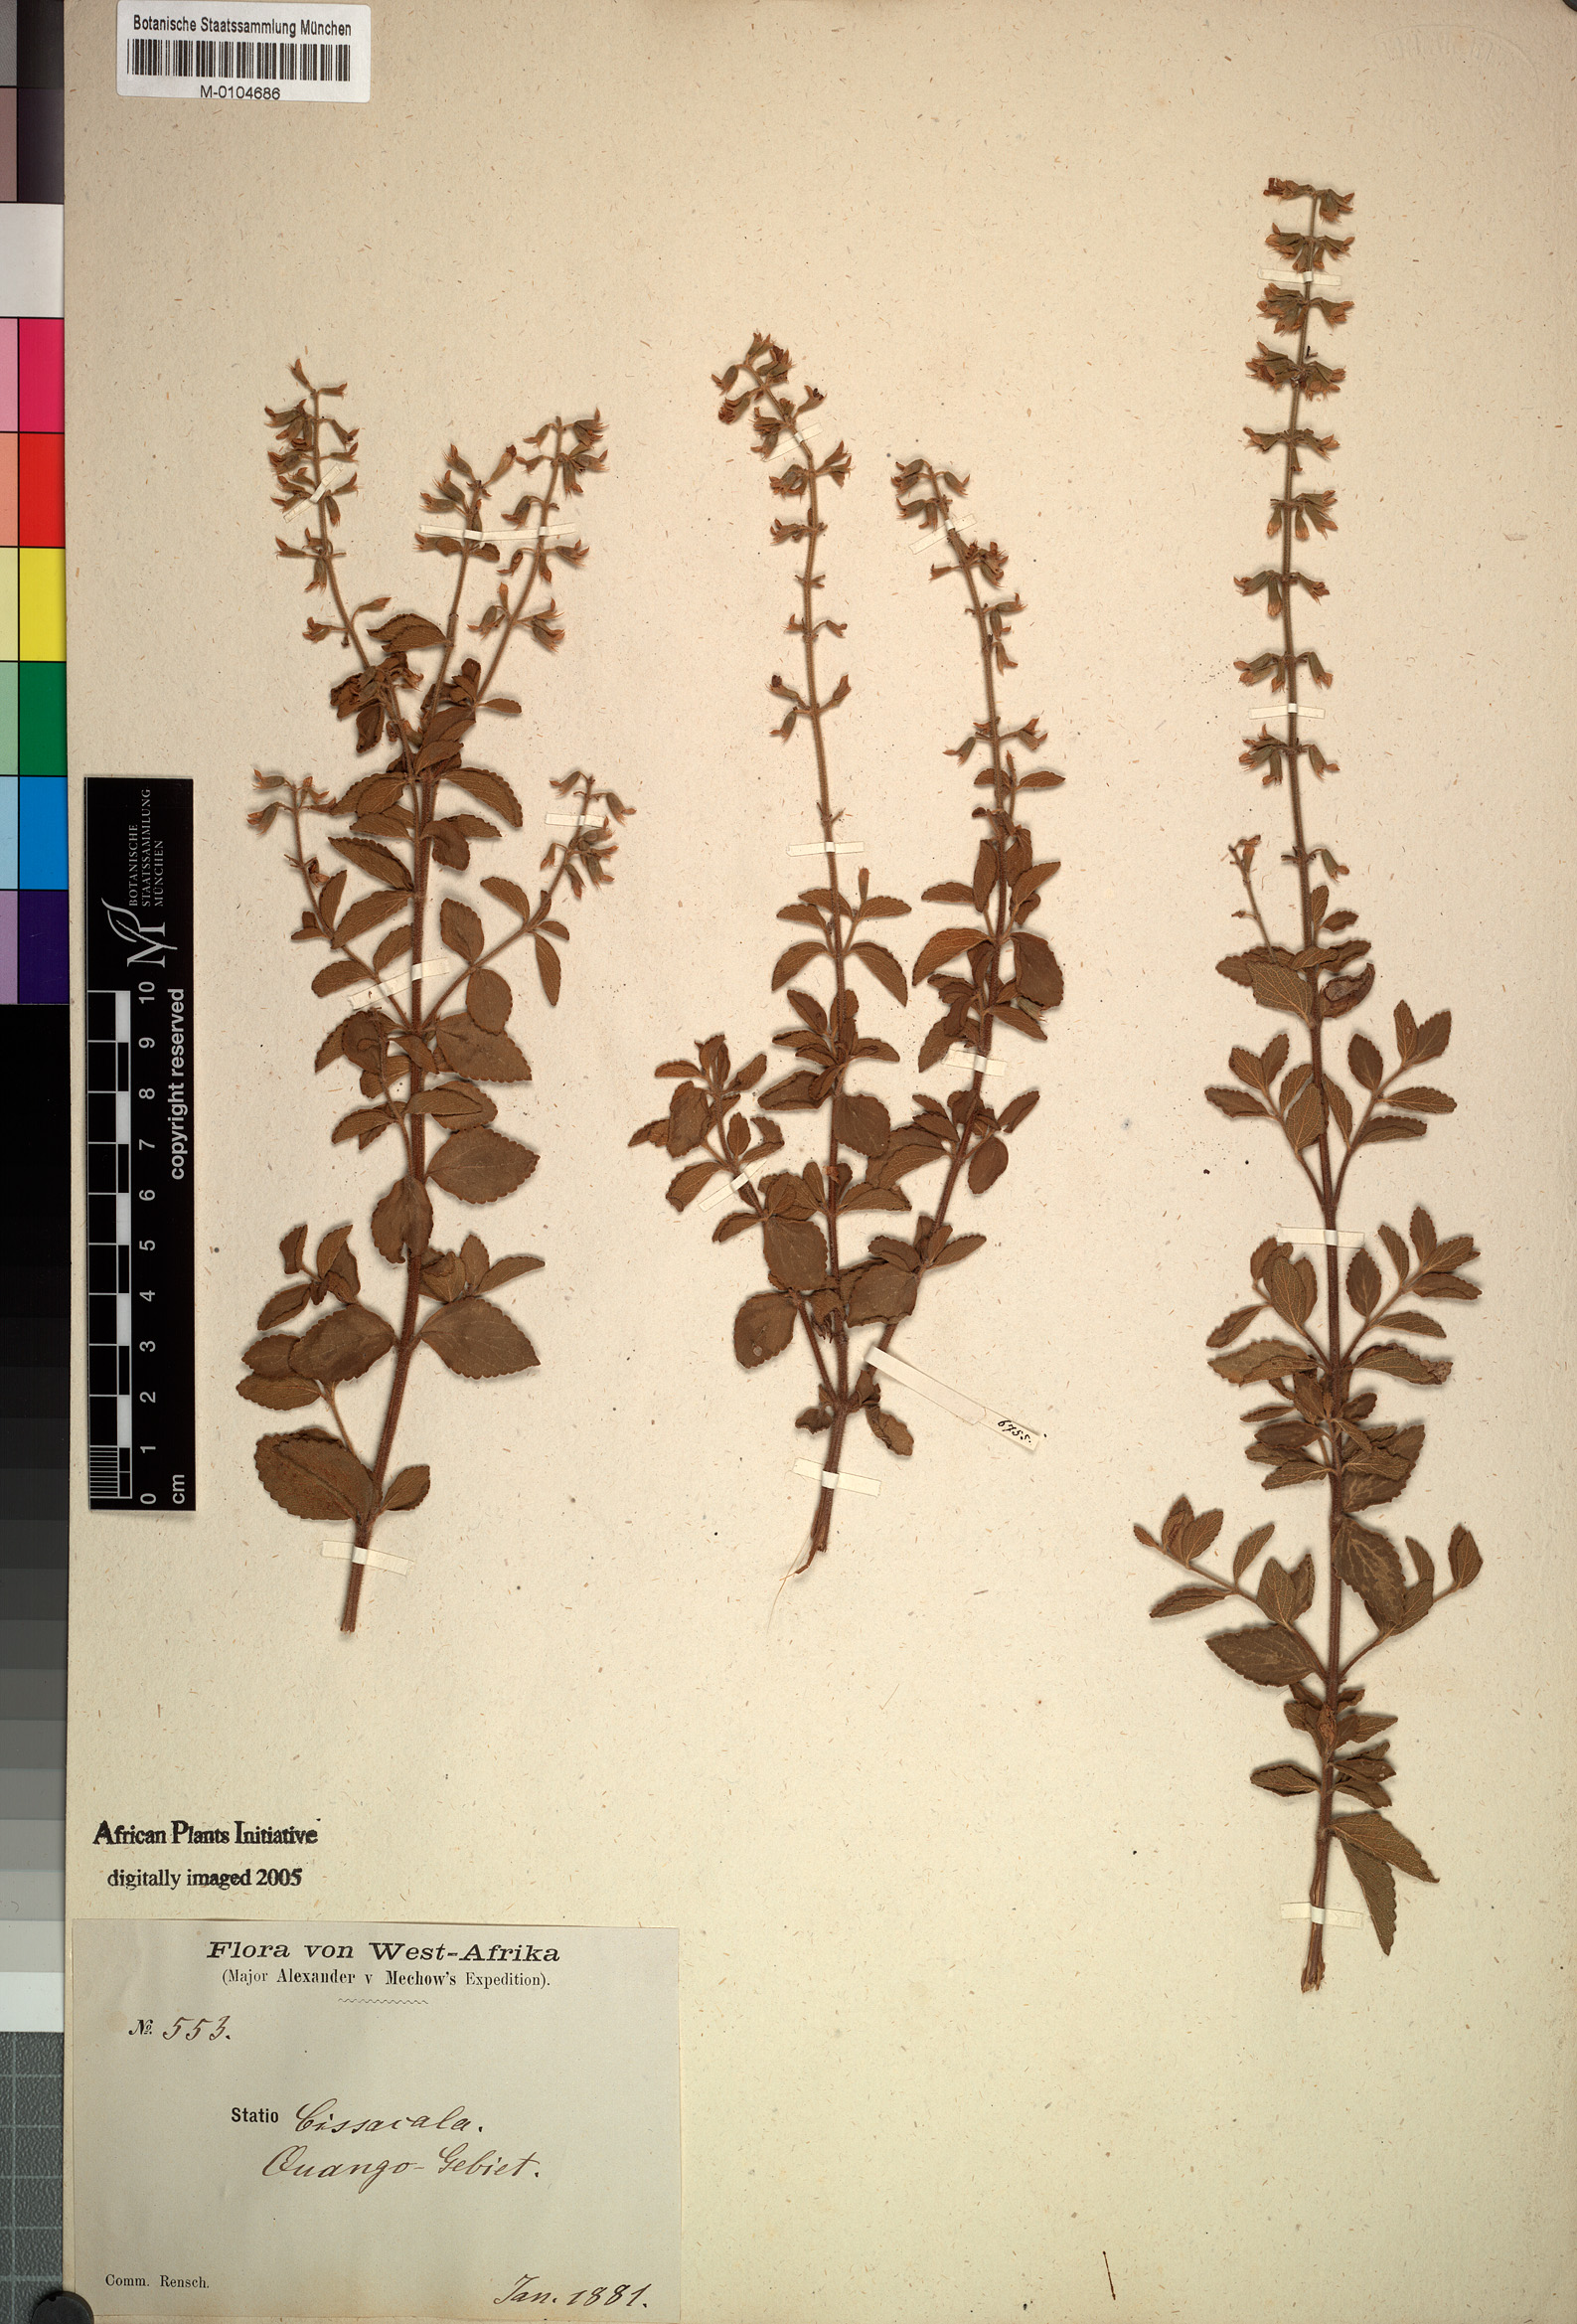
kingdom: Plantae
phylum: Tracheophyta
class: Magnoliopsida
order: Lamiales
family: Lamiaceae
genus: Endostemon
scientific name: Endostemon membranaceus
